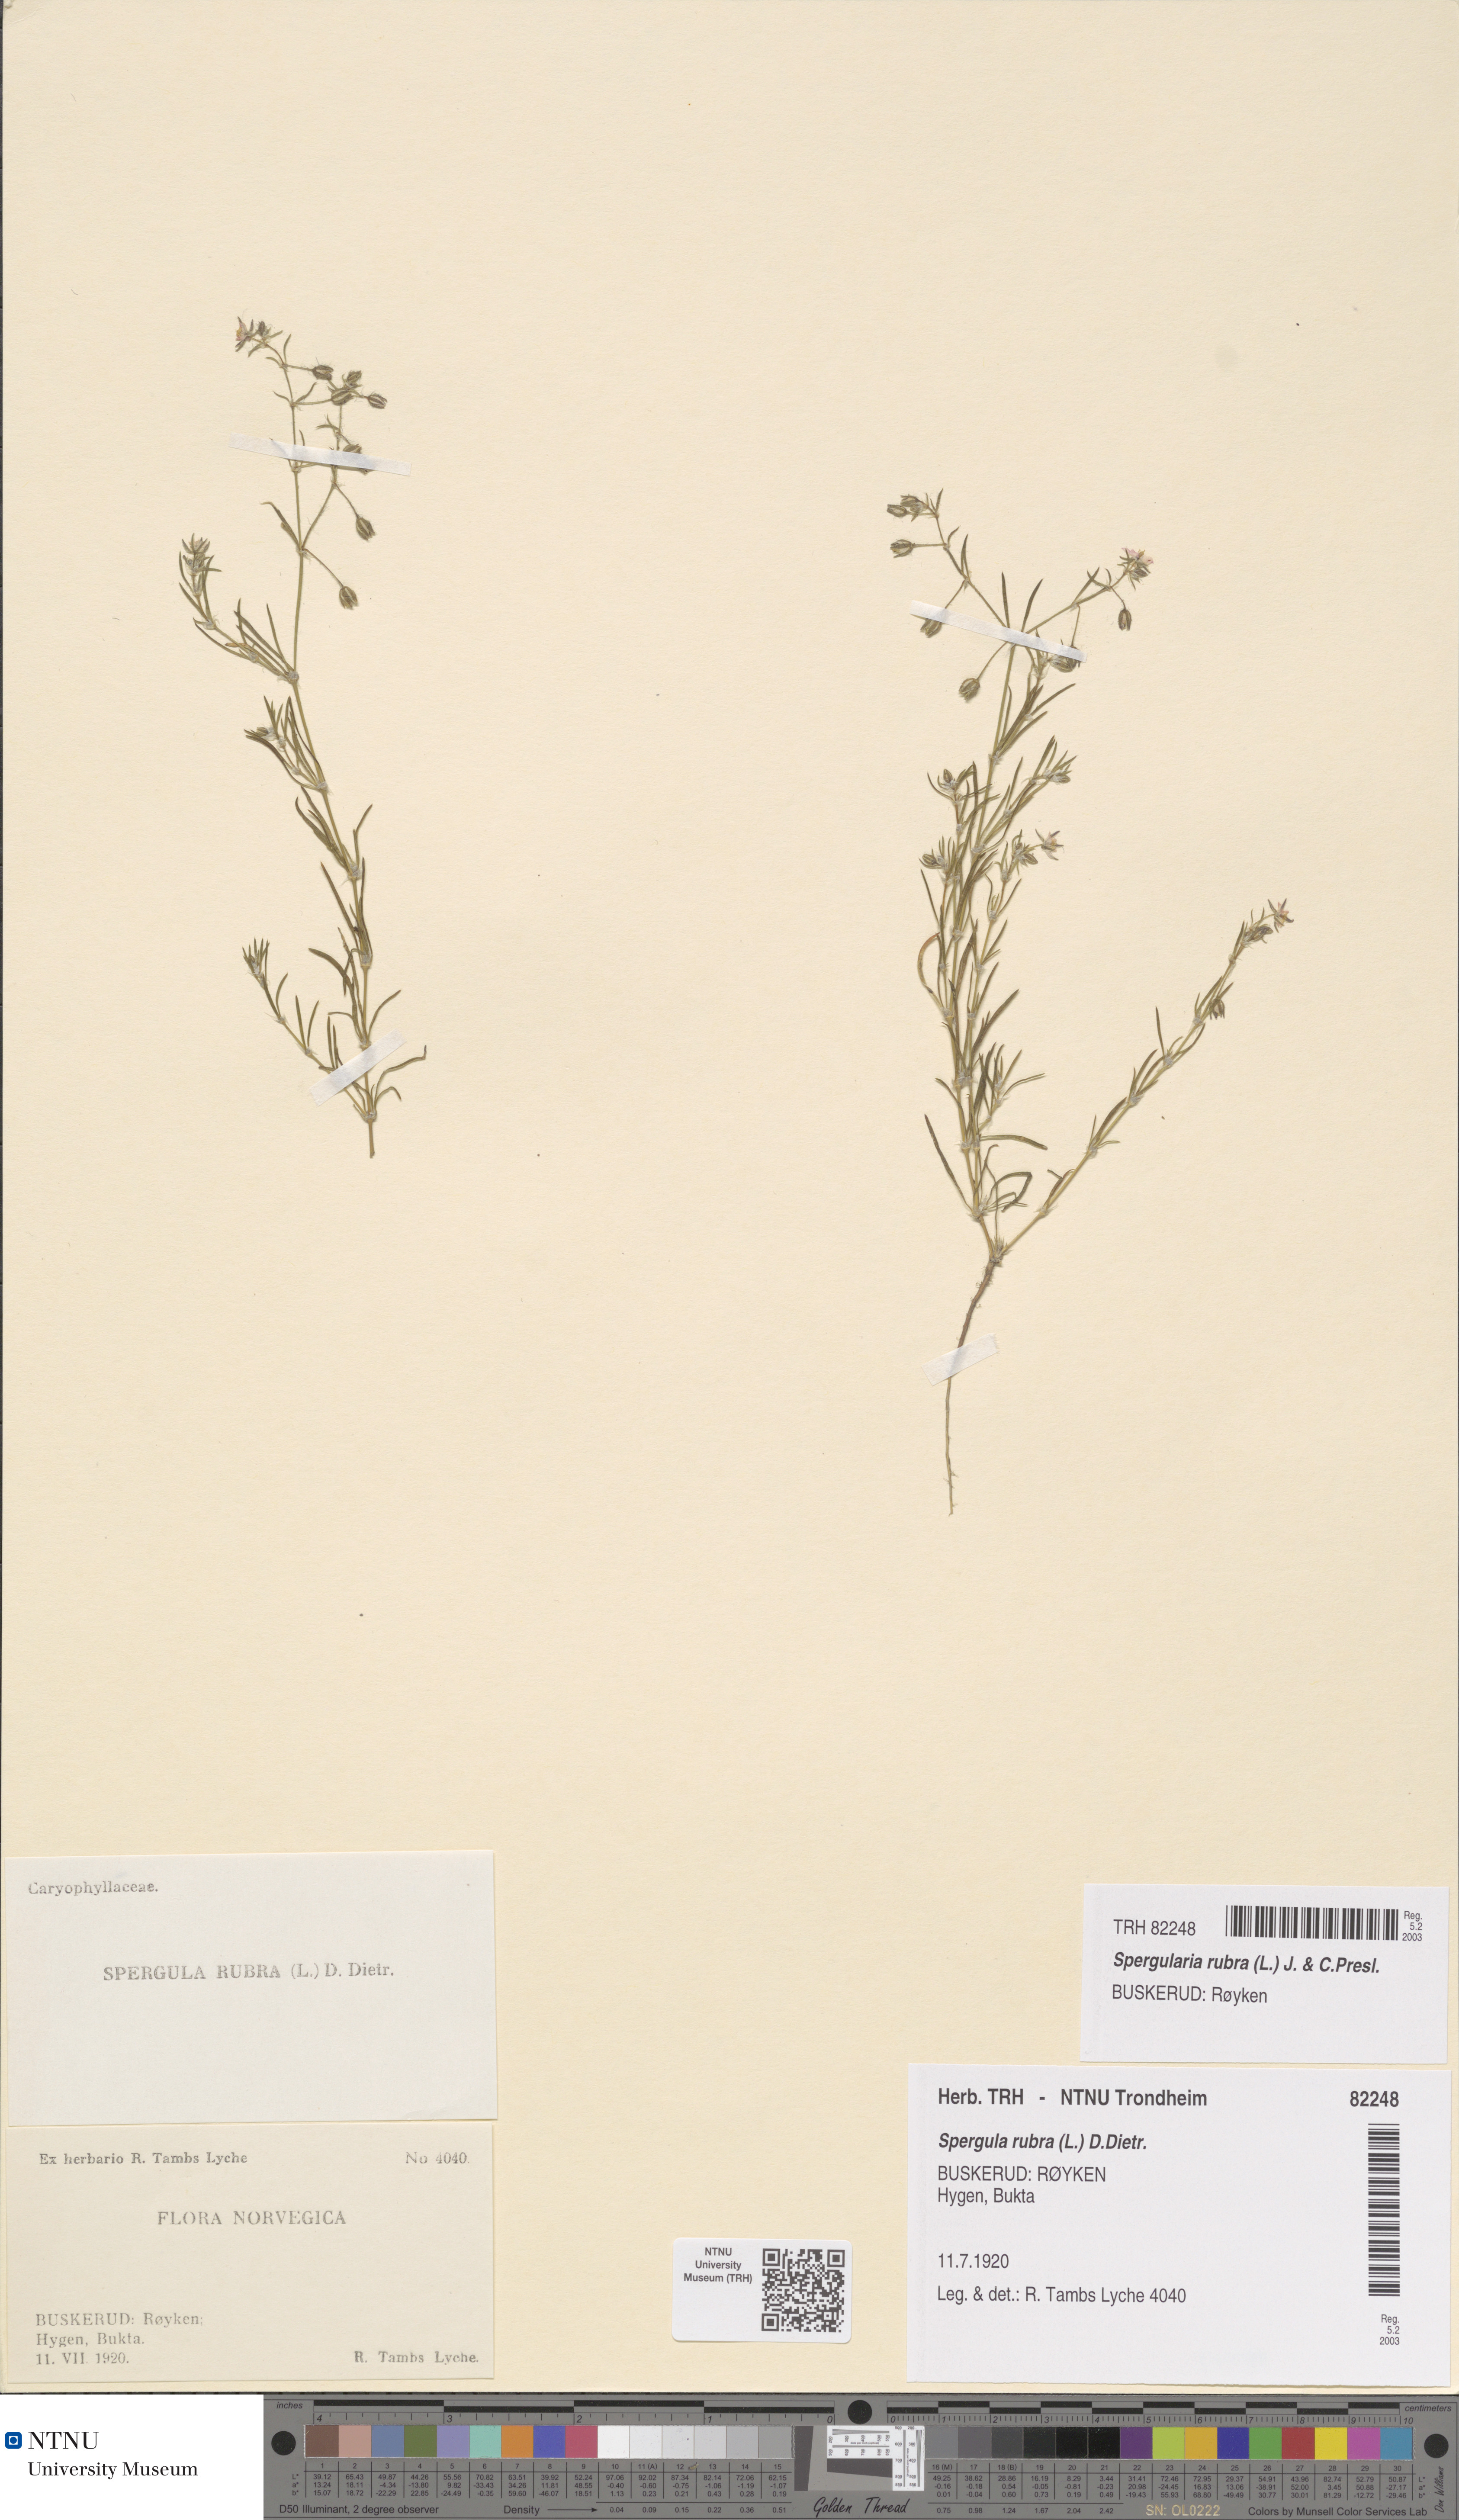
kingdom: Plantae
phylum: Tracheophyta
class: Magnoliopsida
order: Caryophyllales
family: Caryophyllaceae
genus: Spergularia
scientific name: Spergularia rubra
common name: Red sand-spurrey
